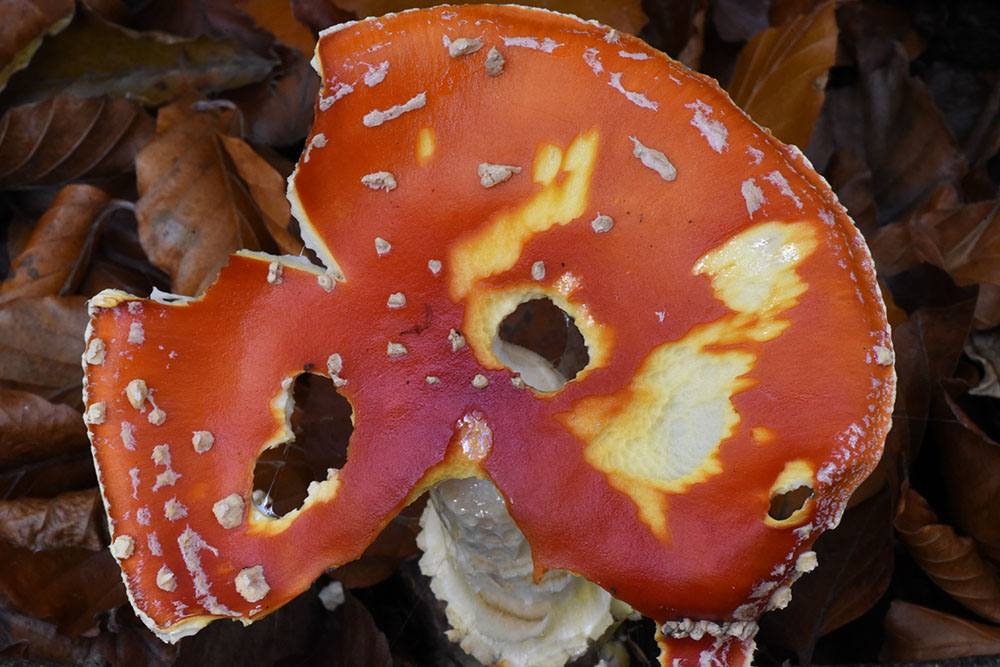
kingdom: Fungi
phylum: Basidiomycota
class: Agaricomycetes
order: Agaricales
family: Amanitaceae
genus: Amanita
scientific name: Amanita muscaria
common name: Fly agaric
